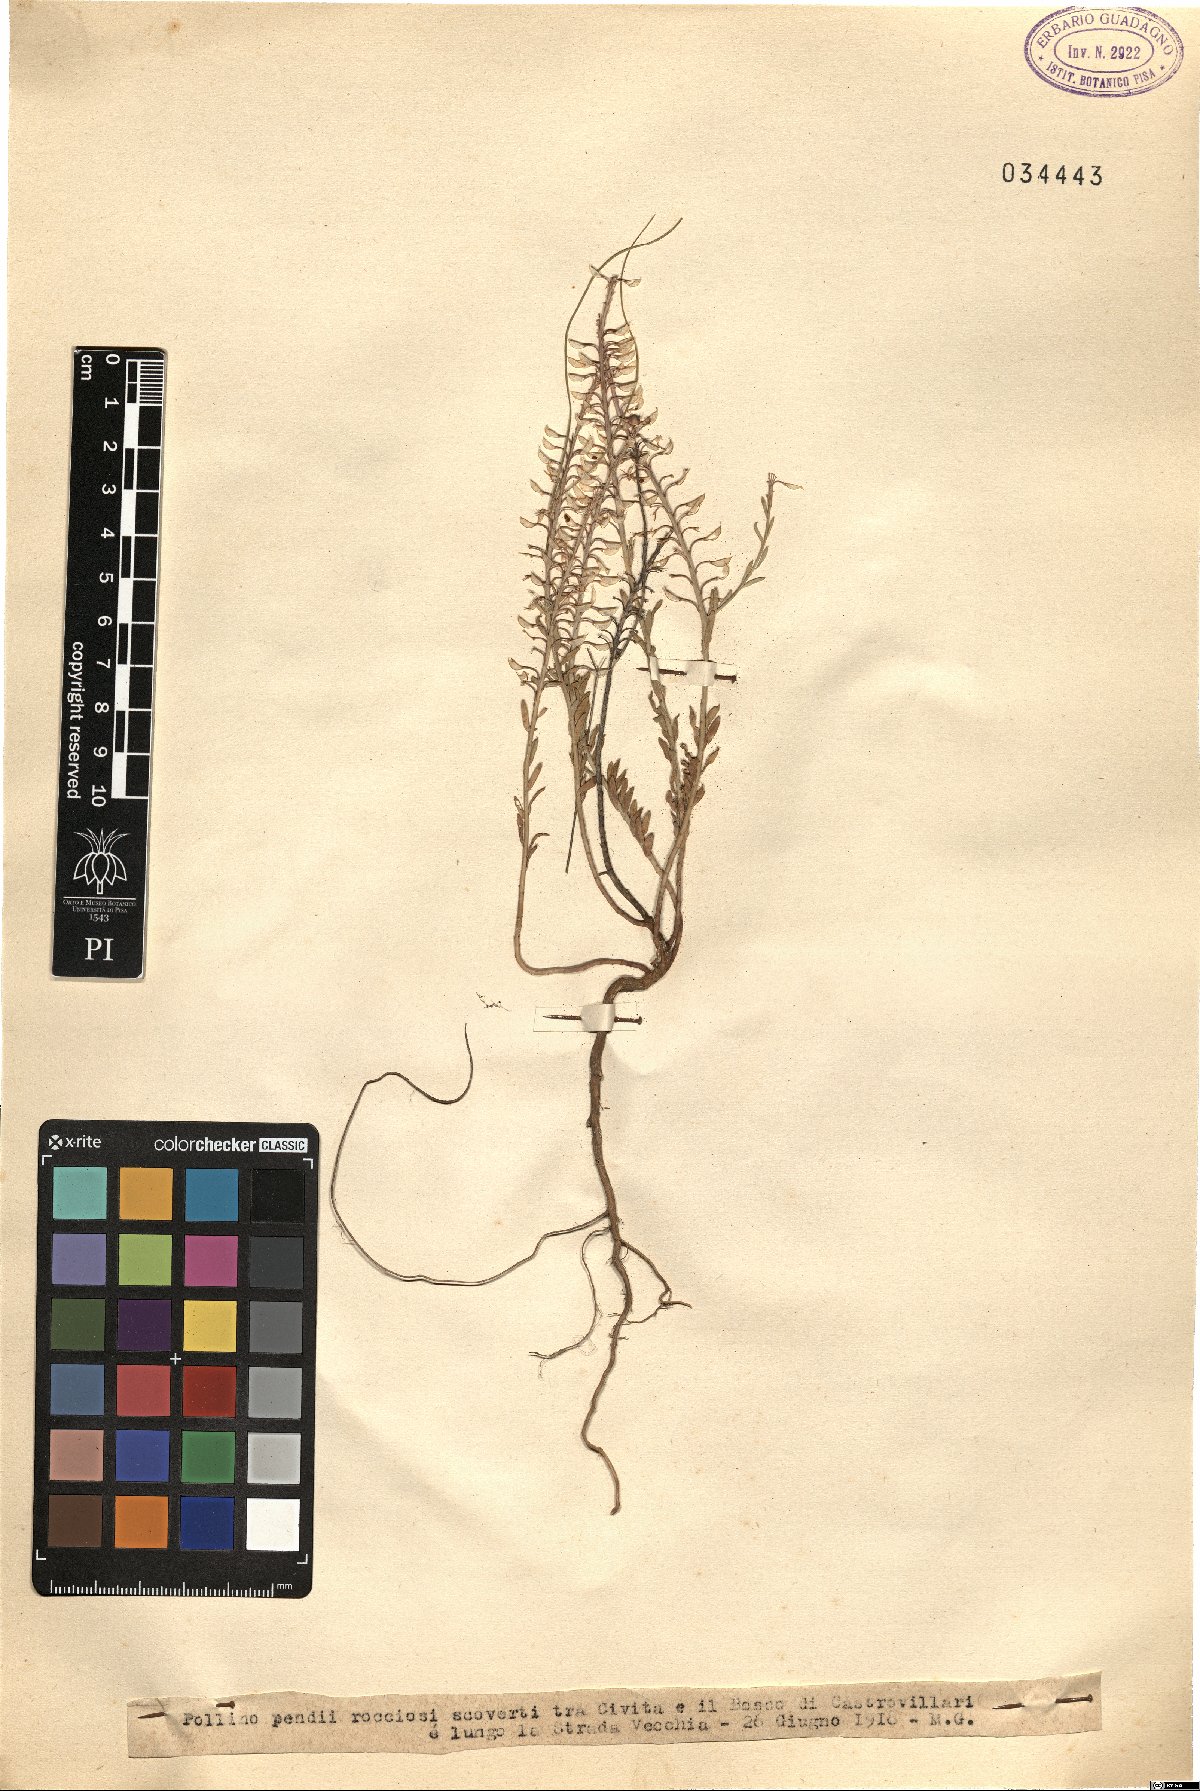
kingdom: Plantae
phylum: Tracheophyta
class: Magnoliopsida
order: Brassicales
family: Brassicaceae
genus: Alyssum
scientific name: Alyssum
